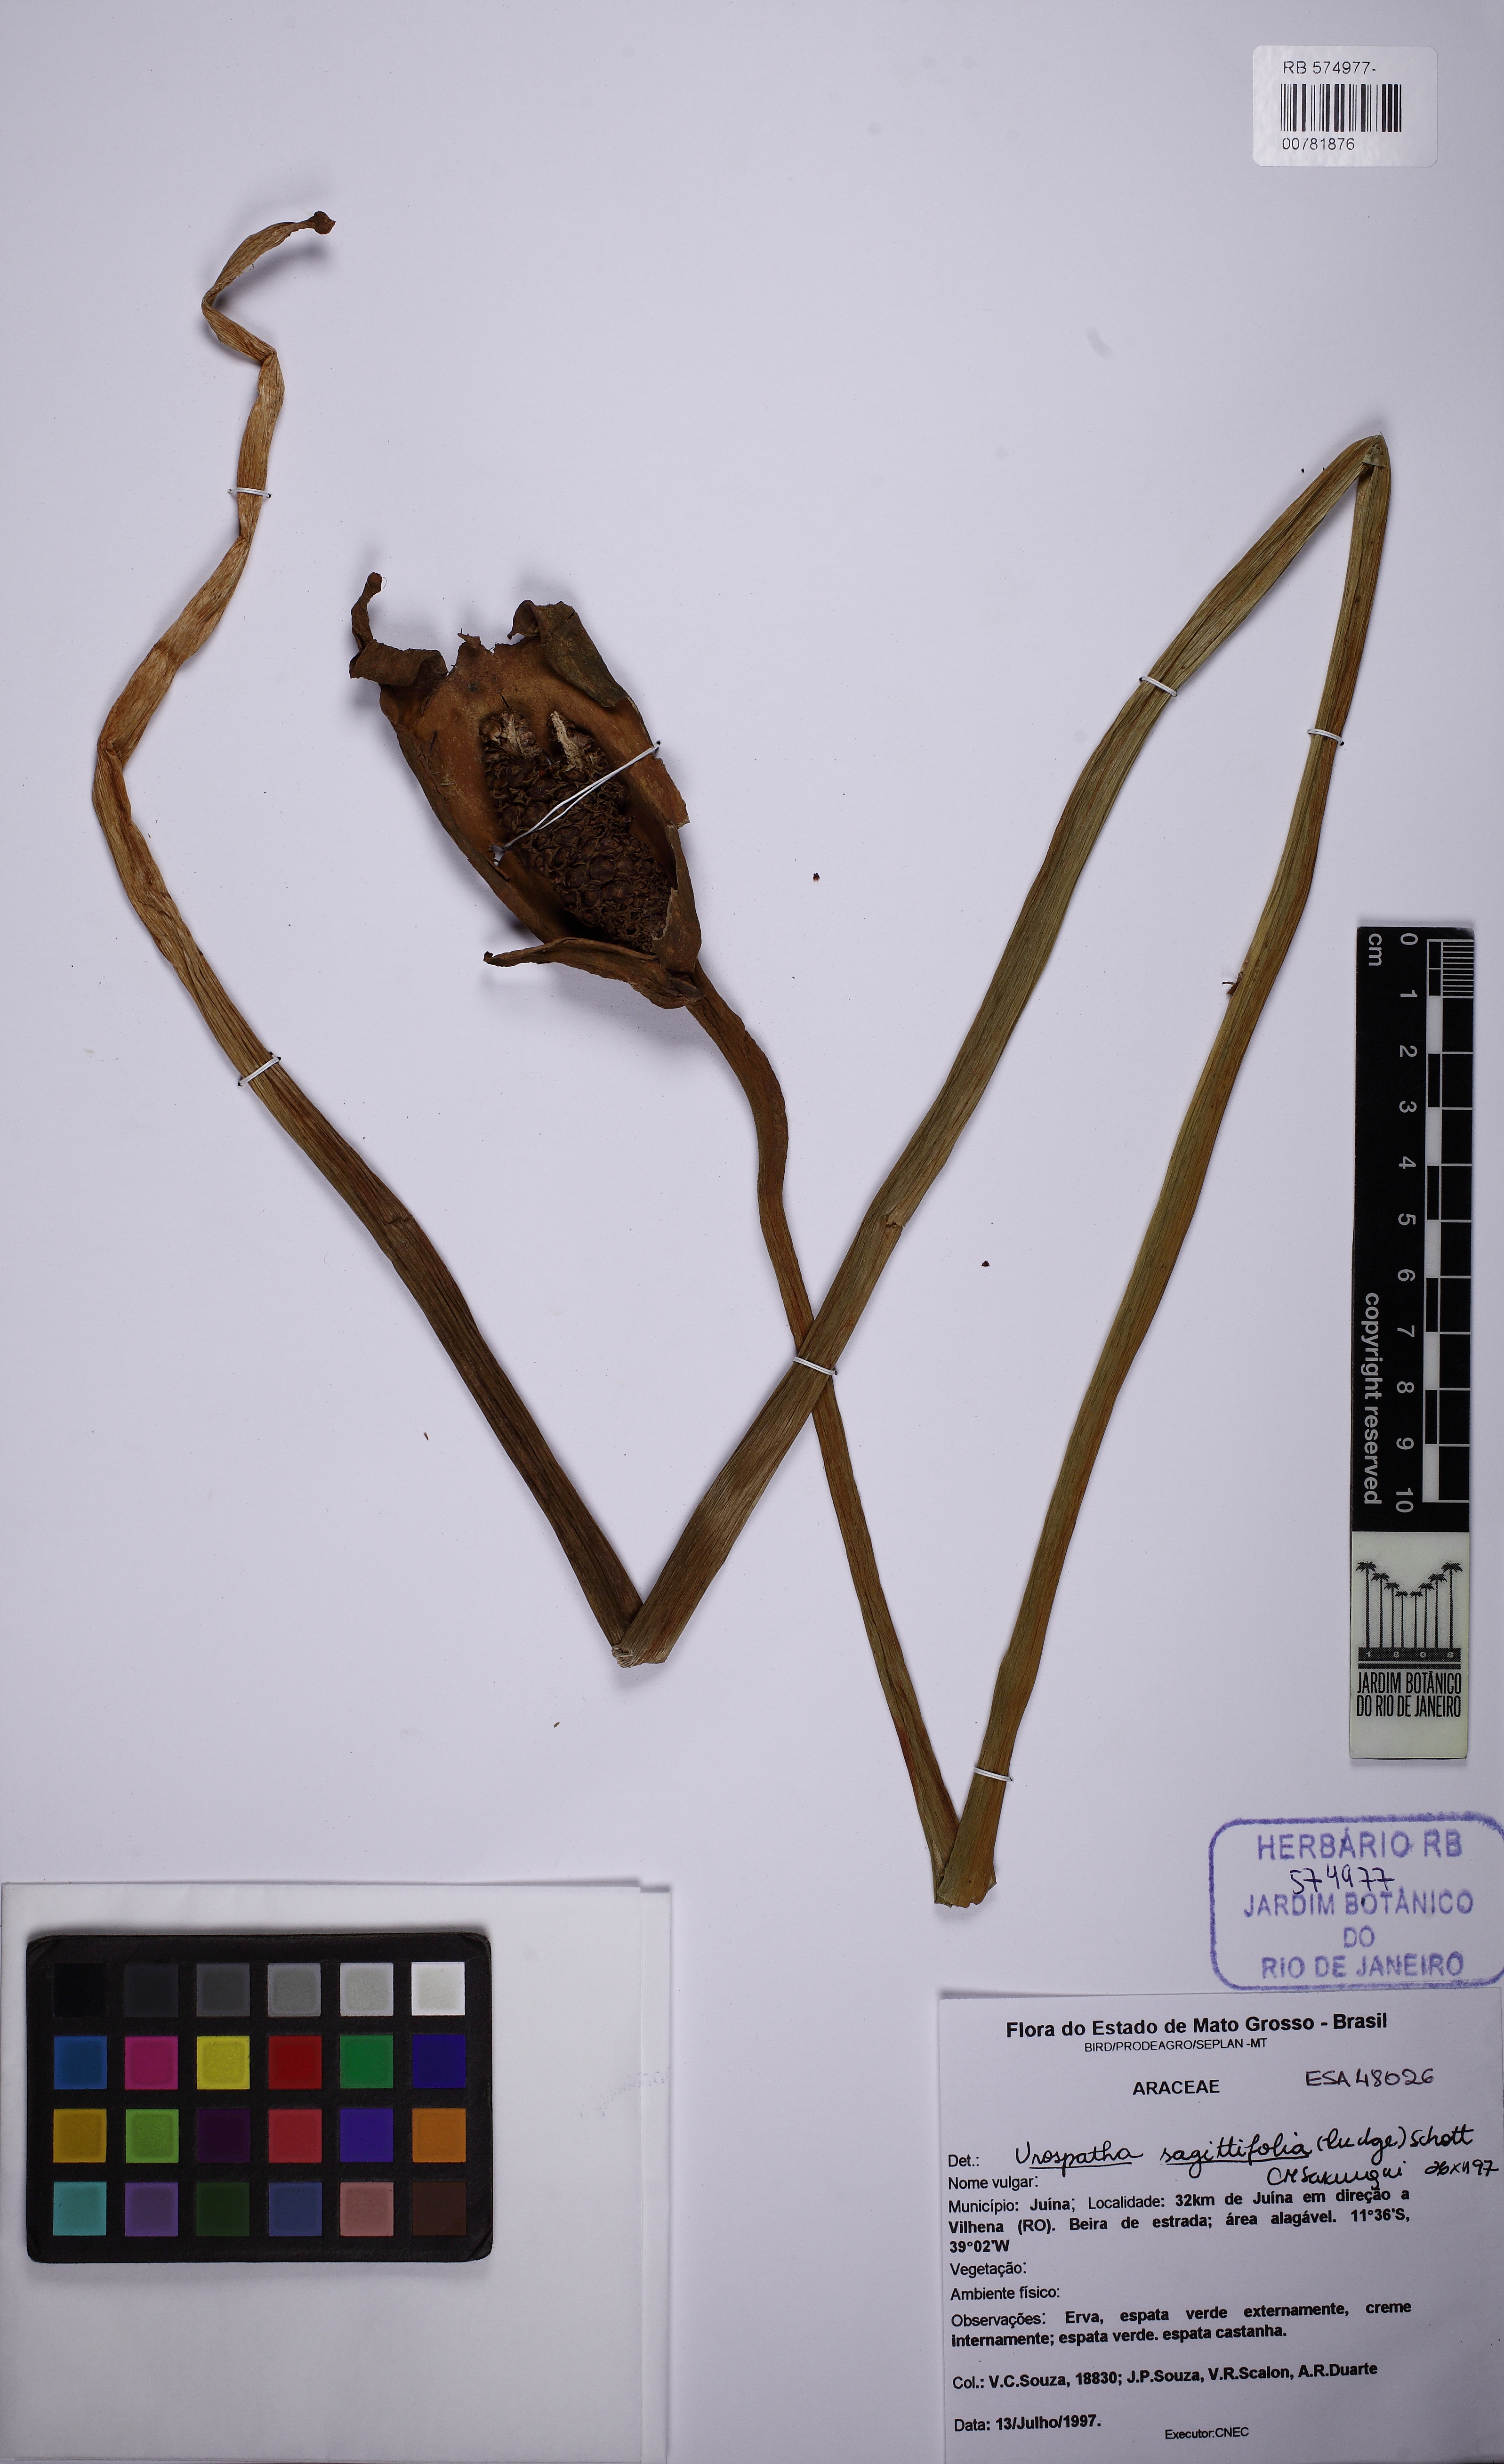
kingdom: Plantae
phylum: Tracheophyta
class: Liliopsida
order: Alismatales
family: Araceae
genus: Urospatha
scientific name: Urospatha sagittifolia
